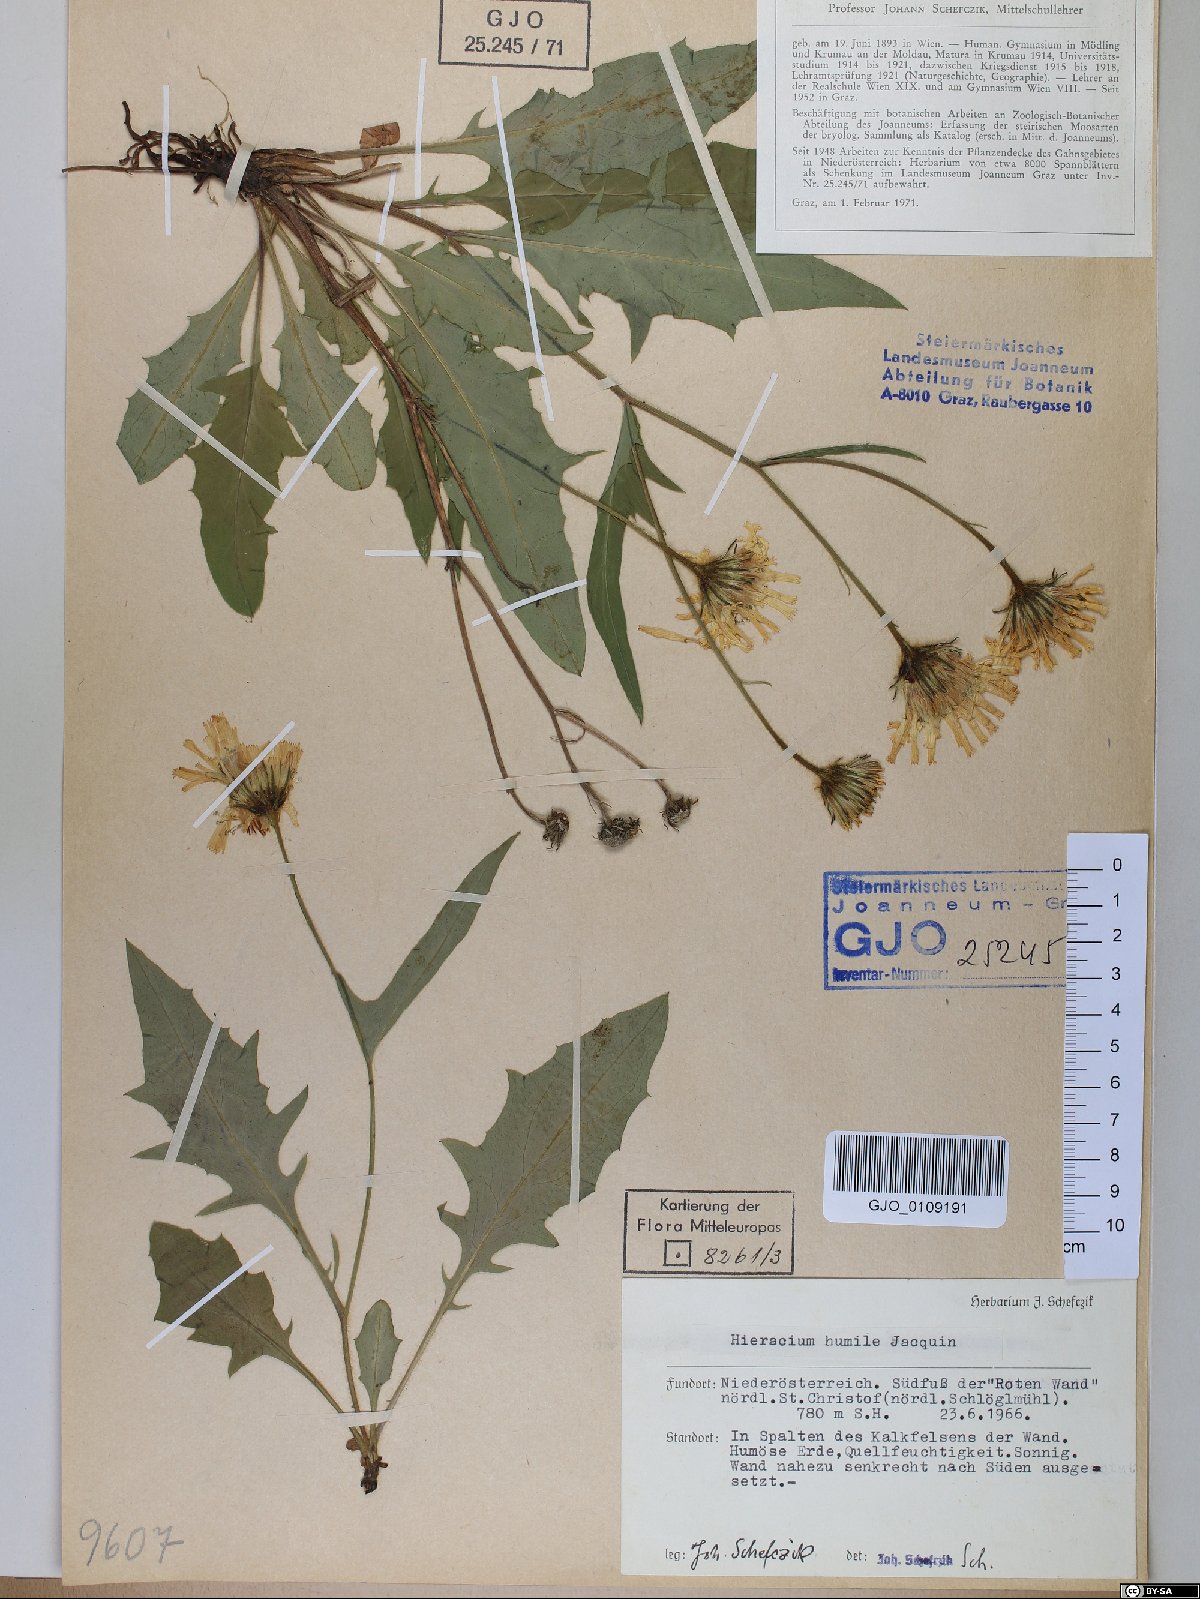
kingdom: Plantae
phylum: Tracheophyta
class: Magnoliopsida
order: Asterales
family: Asteraceae
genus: Hieracium
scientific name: Hieracium humile
